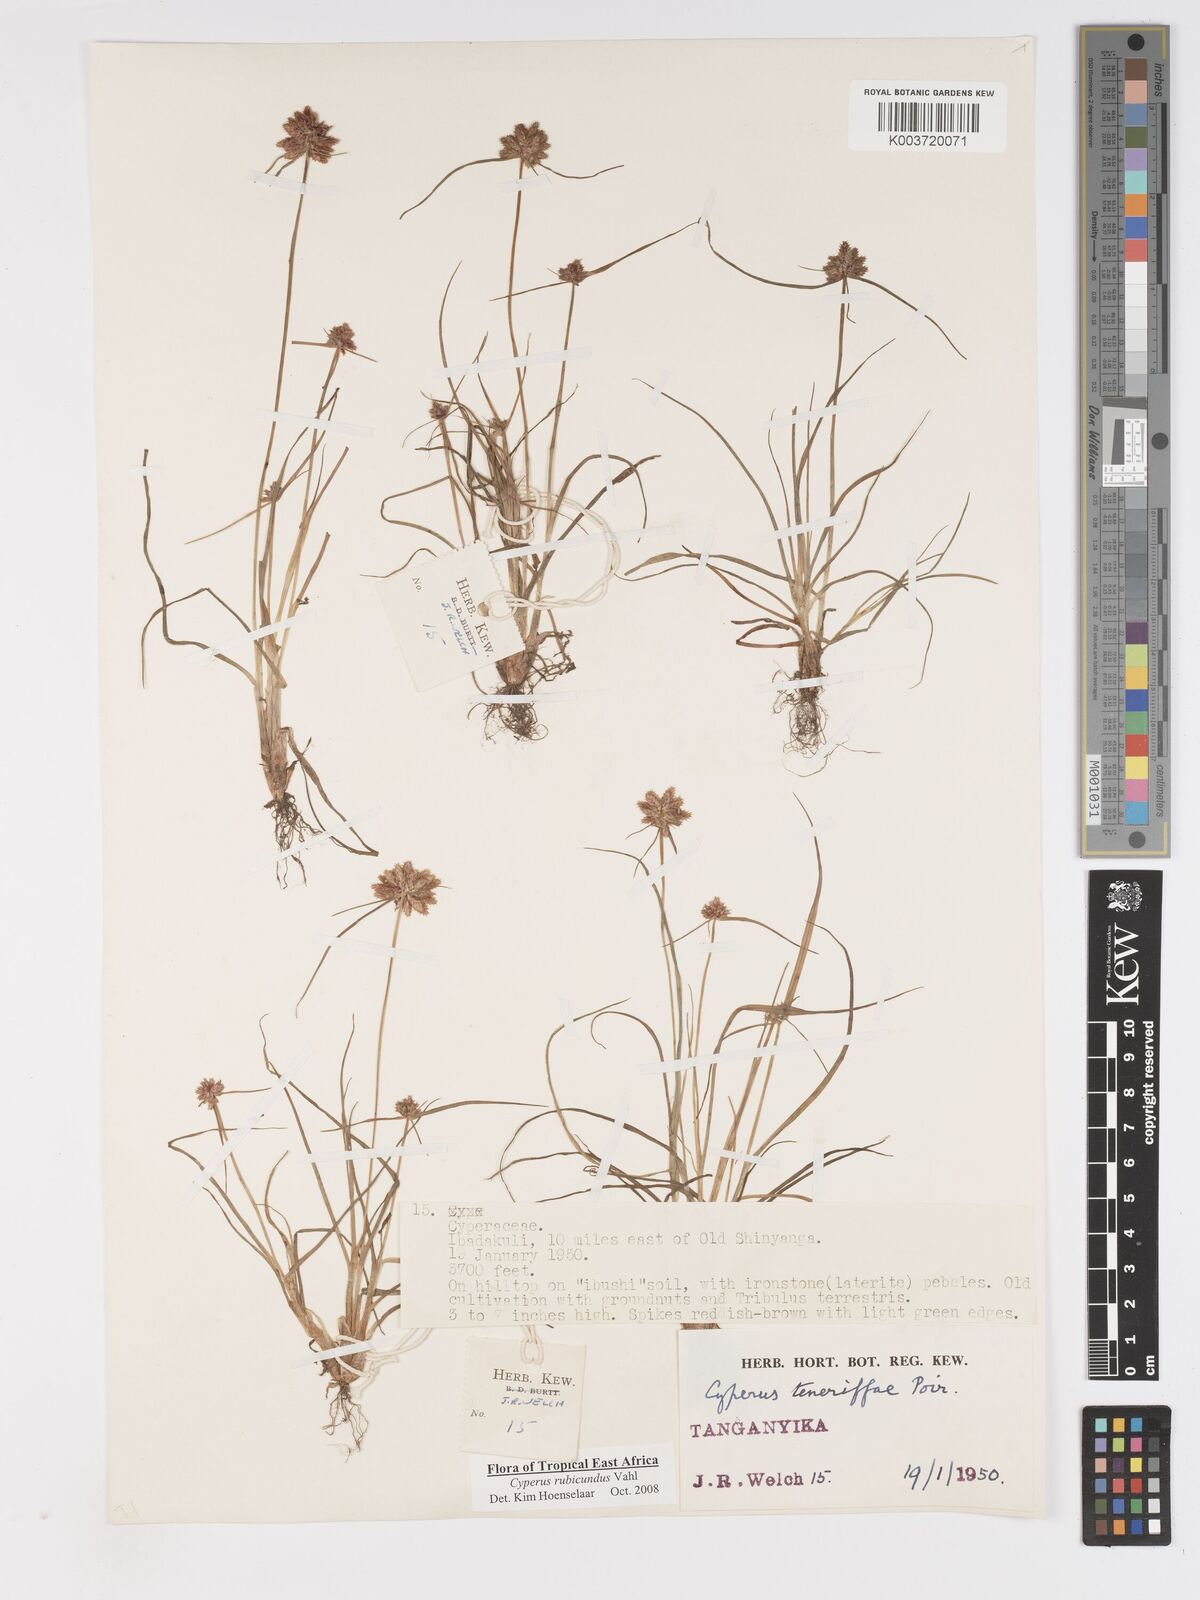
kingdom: Plantae
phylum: Tracheophyta
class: Liliopsida
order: Poales
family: Cyperaceae
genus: Cyperus
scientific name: Cyperus rubicundus
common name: Coco-grass
